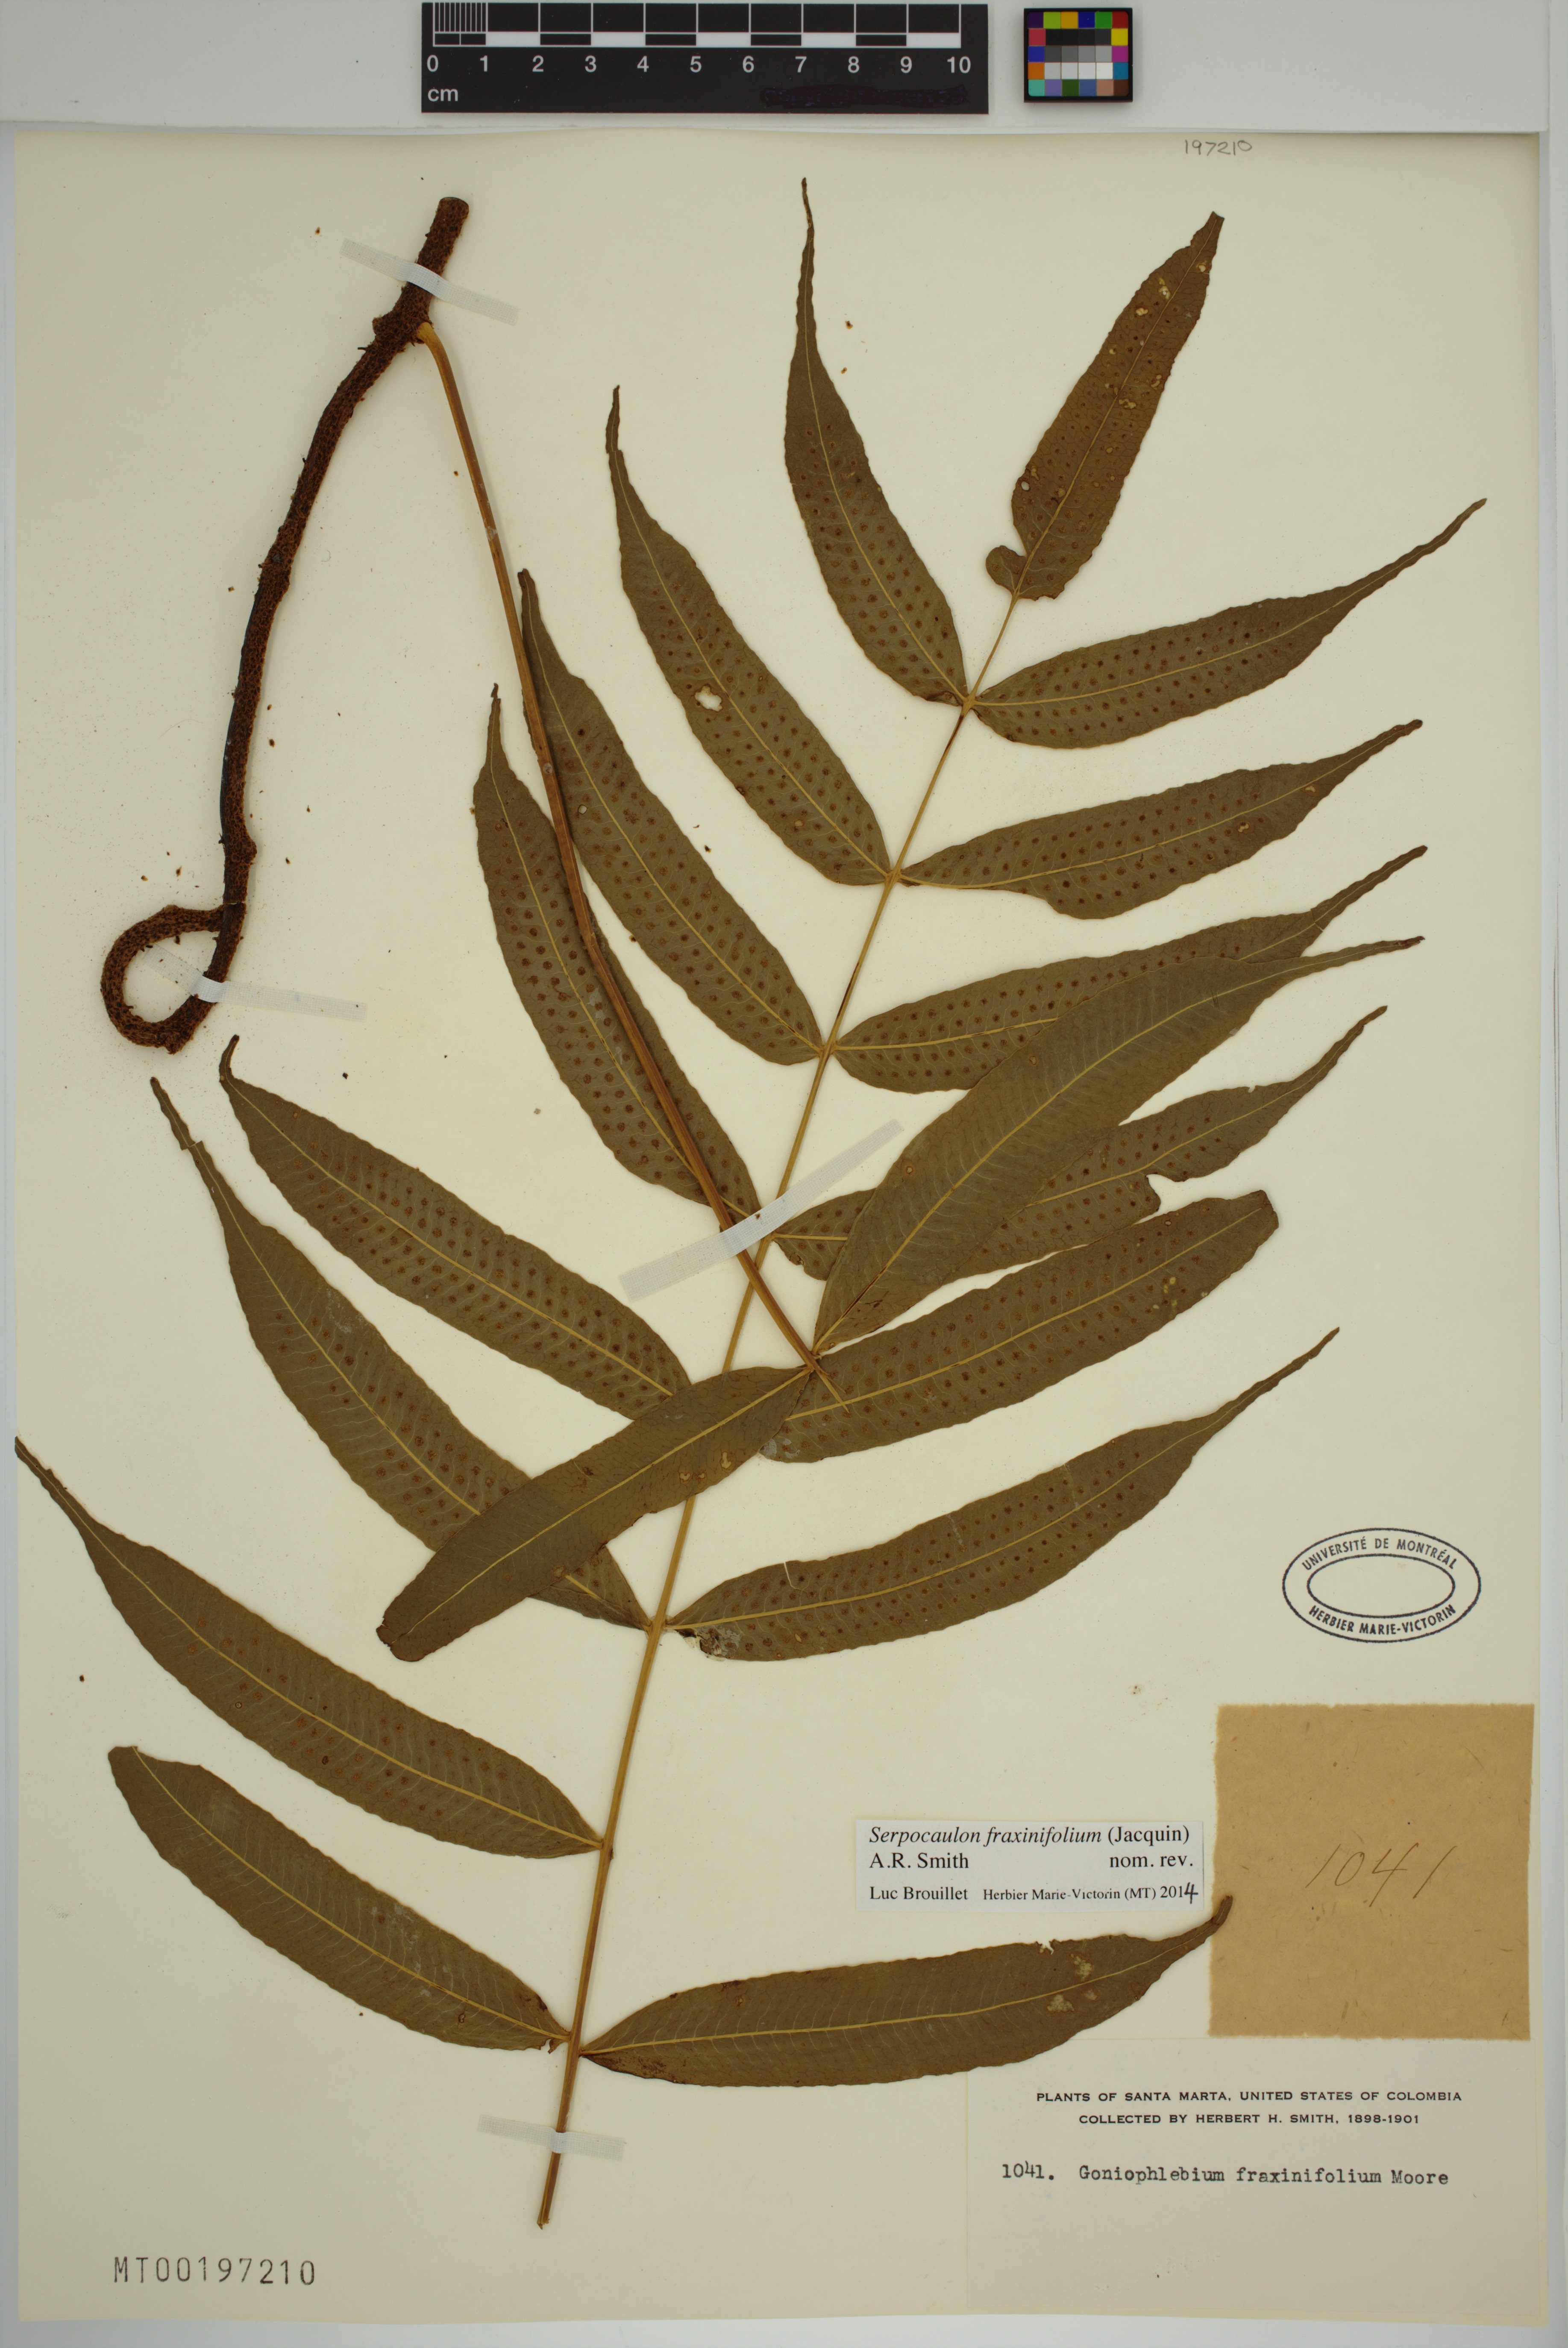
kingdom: Plantae
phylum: Tracheophyta
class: Polypodiopsida
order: Polypodiales
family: Polypodiaceae
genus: Serpocaulon
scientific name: Serpocaulon fraxinifolium
